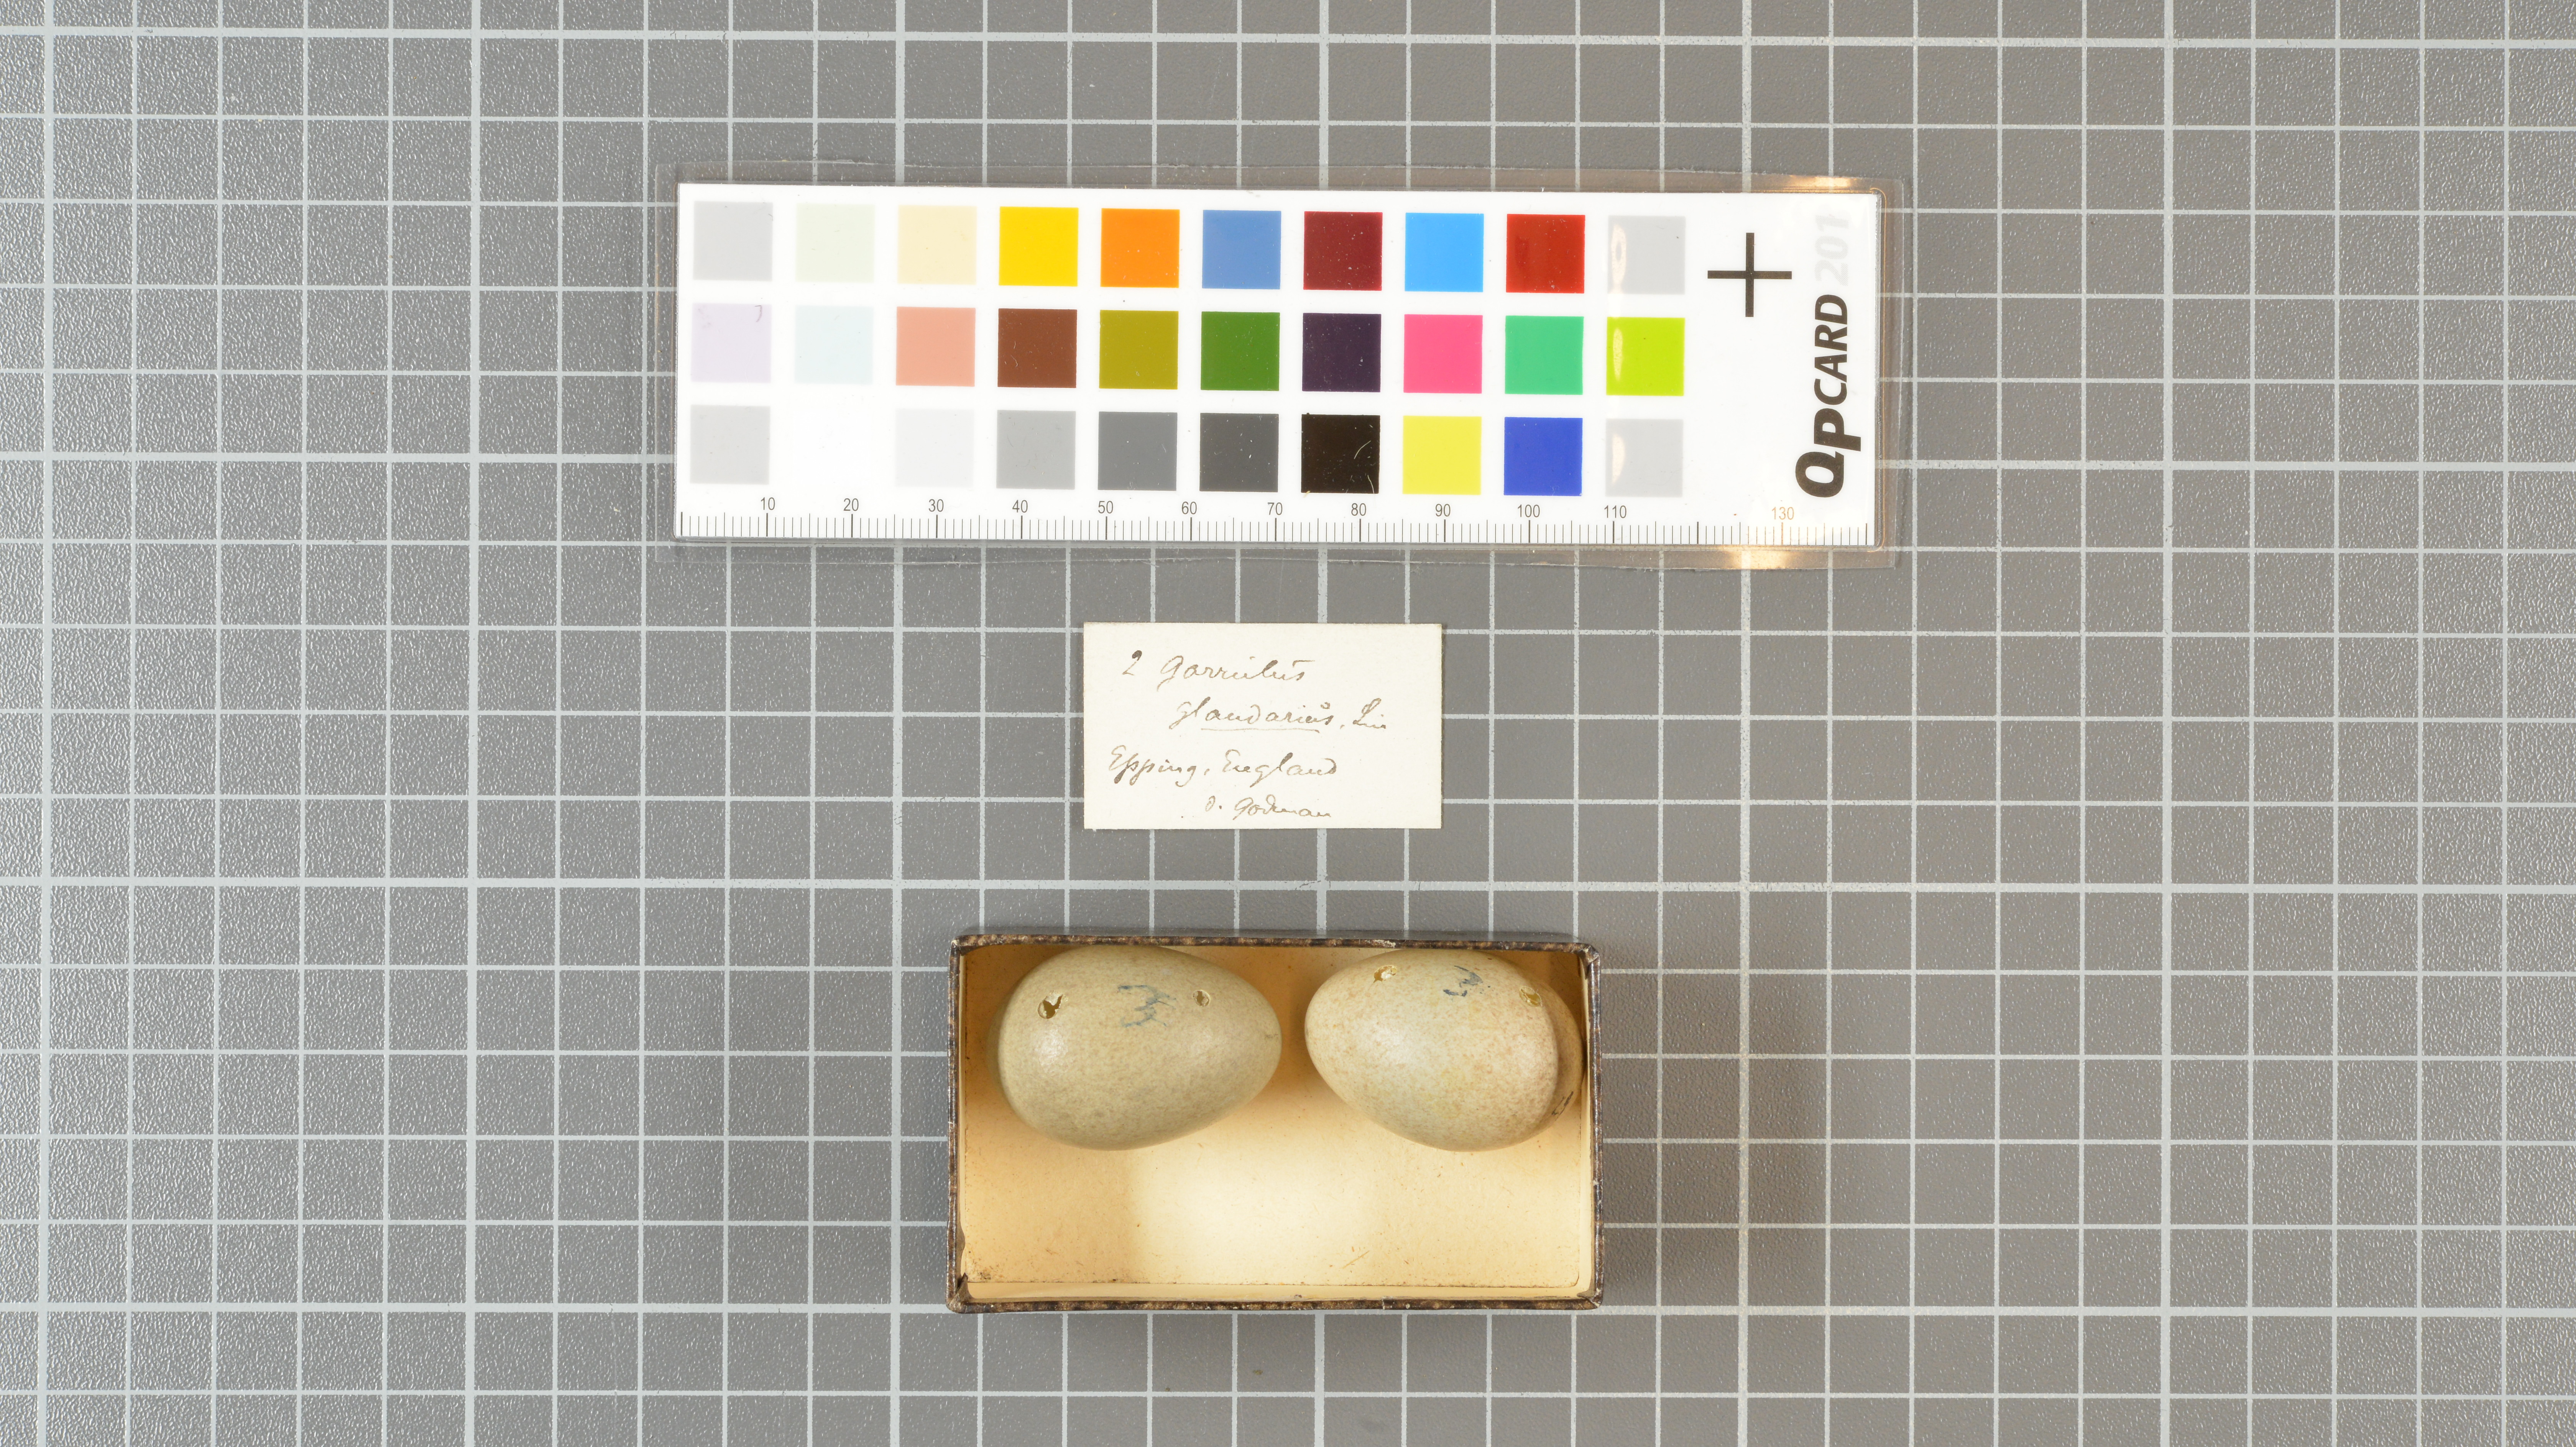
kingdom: Animalia
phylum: Chordata
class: Aves
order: Passeriformes
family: Corvidae
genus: Garrulus
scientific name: Garrulus glandarius
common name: Eurasian jay
